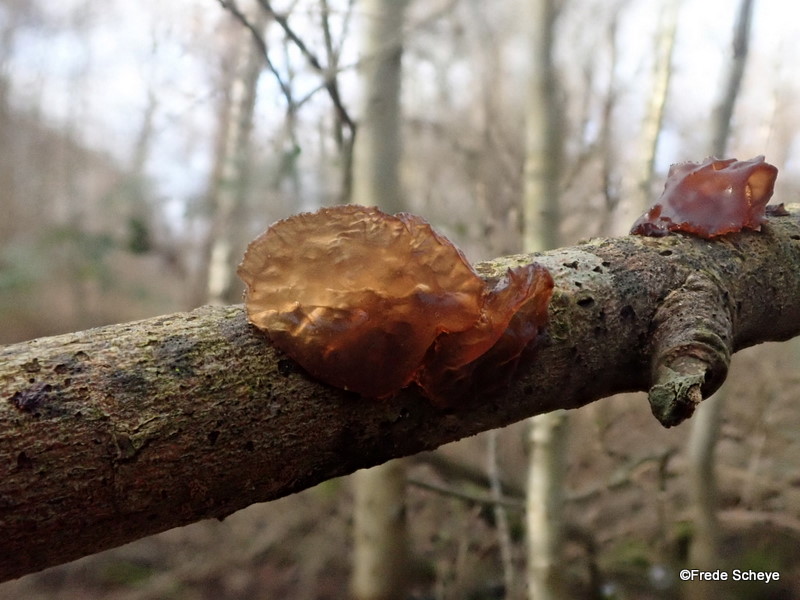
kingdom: Fungi
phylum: Basidiomycota
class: Agaricomycetes
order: Auriculariales
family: Auriculariaceae
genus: Exidia
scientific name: Exidia recisa
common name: pile-bævretop
